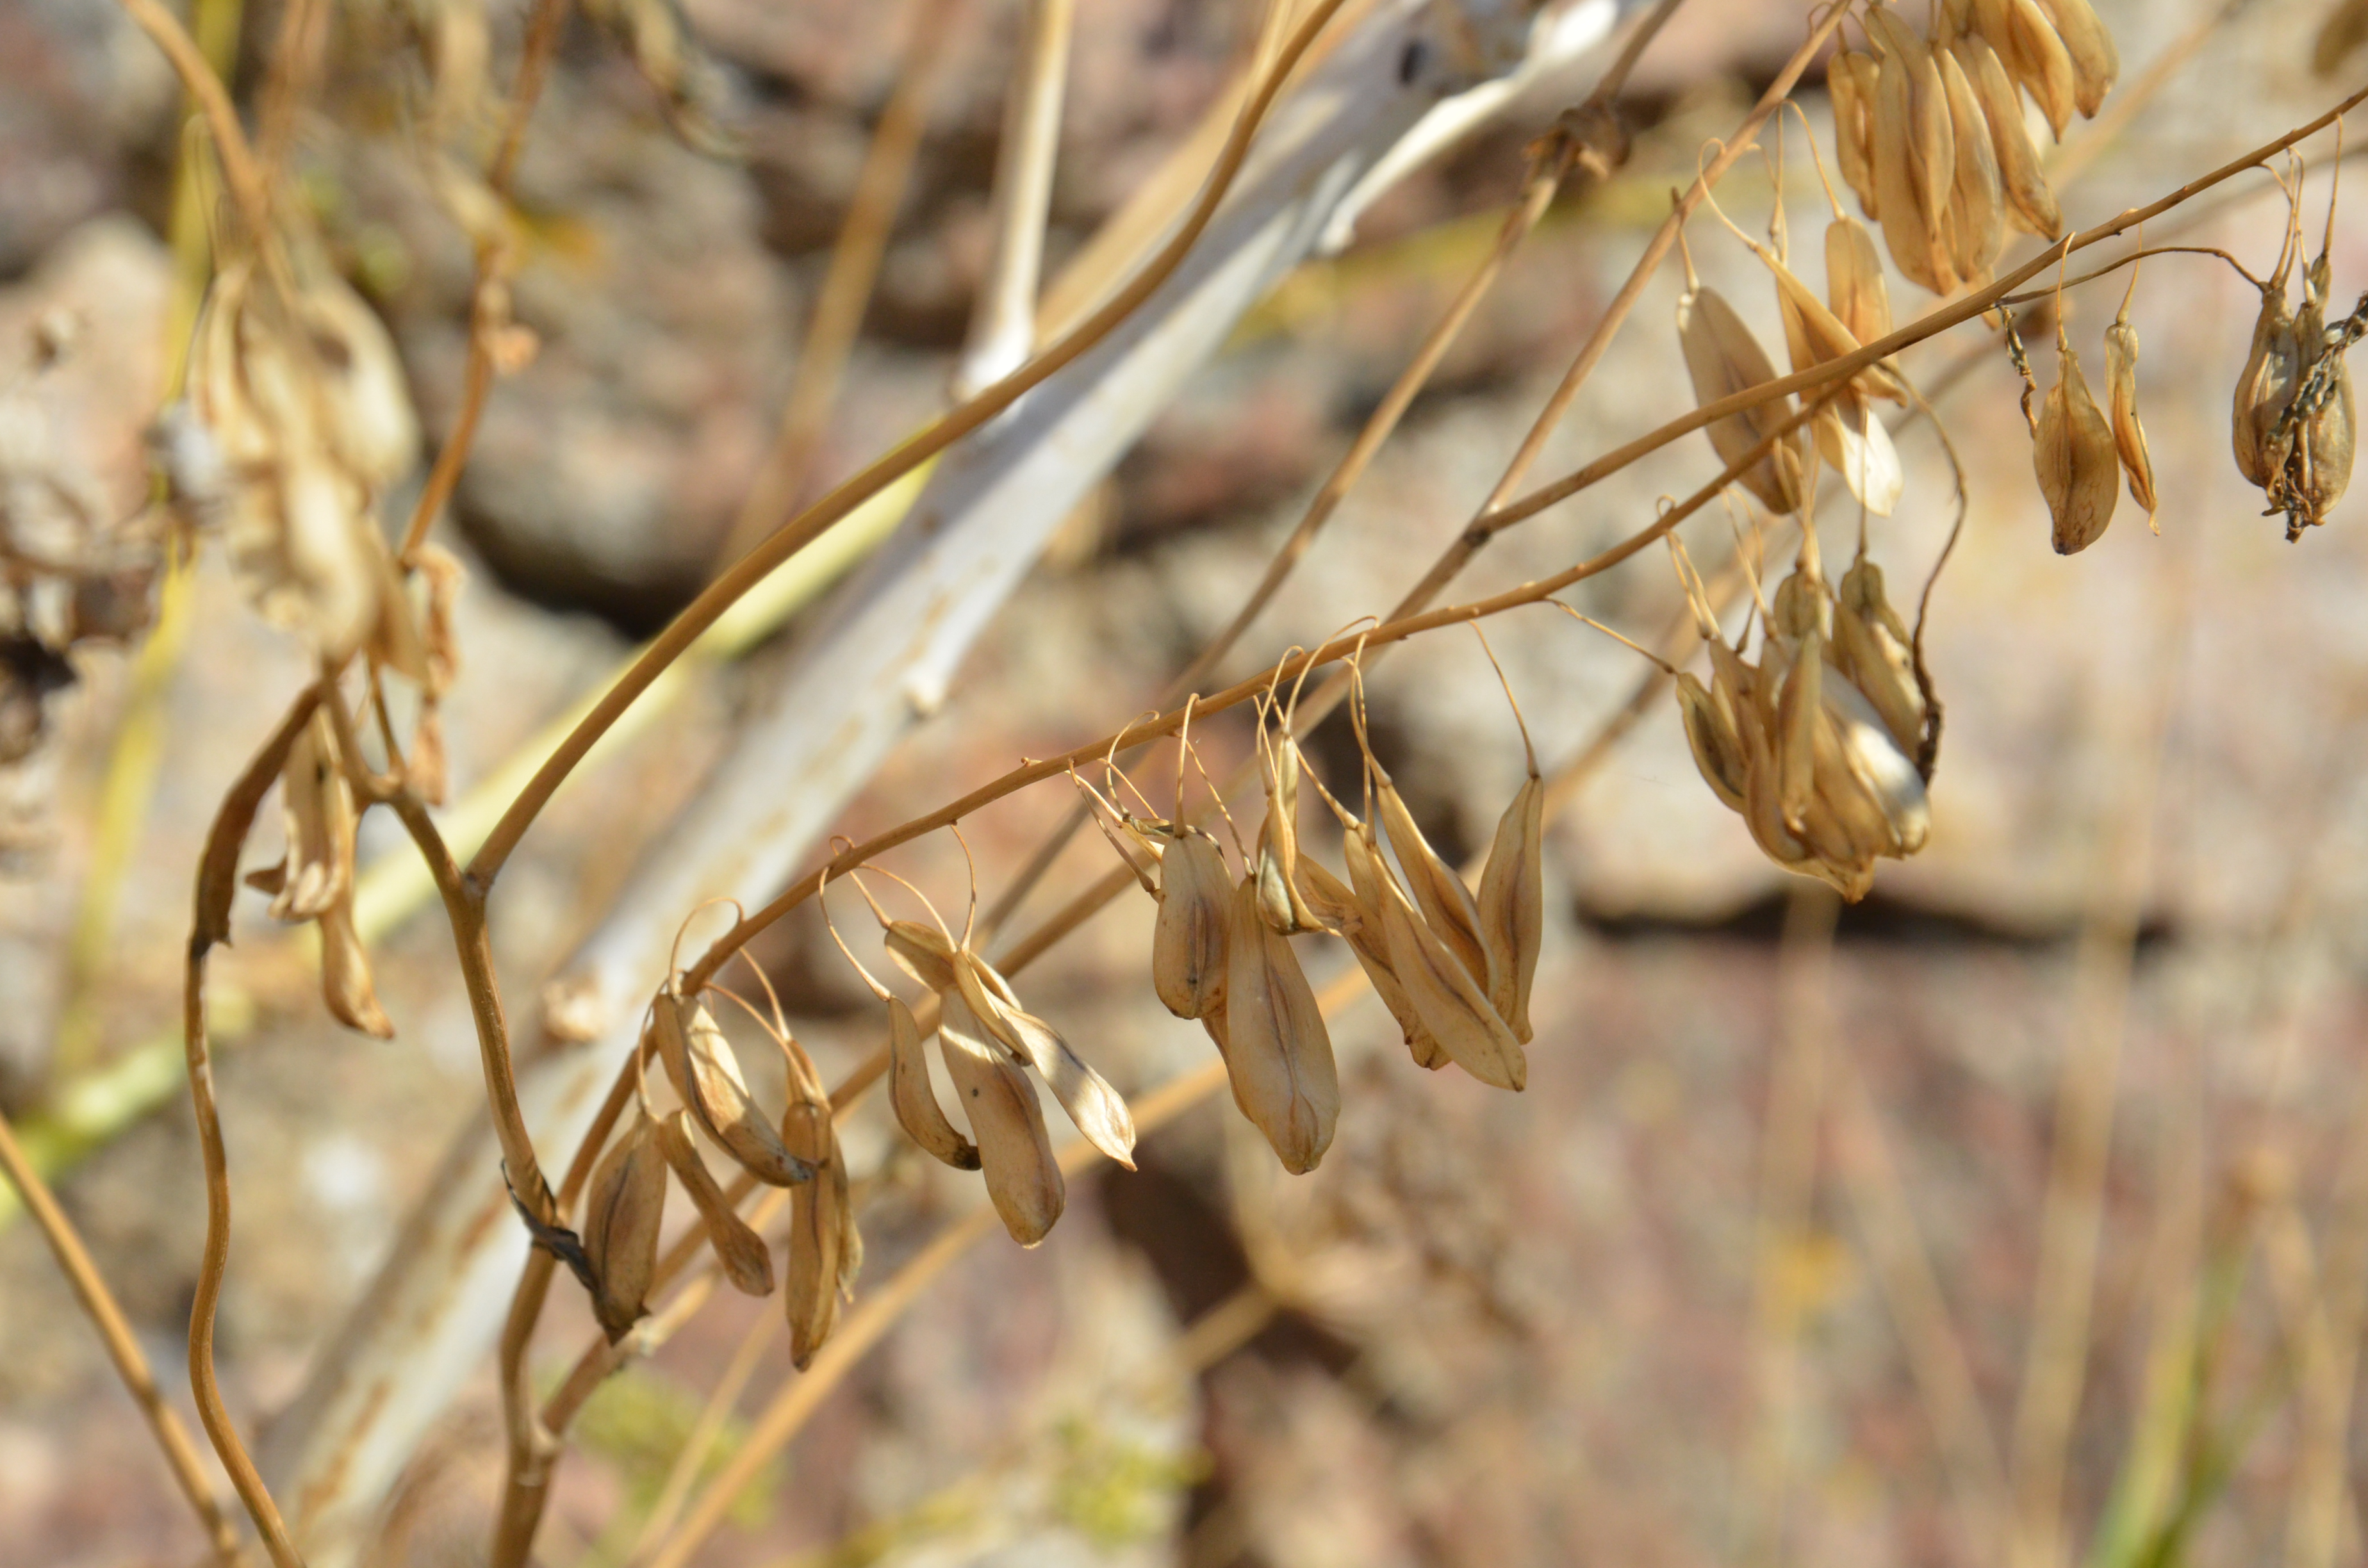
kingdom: Plantae
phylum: Tracheophyta
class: Magnoliopsida
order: Brassicales
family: Brassicaceae
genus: Isatis
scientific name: Isatis tinctoria
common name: Woad
